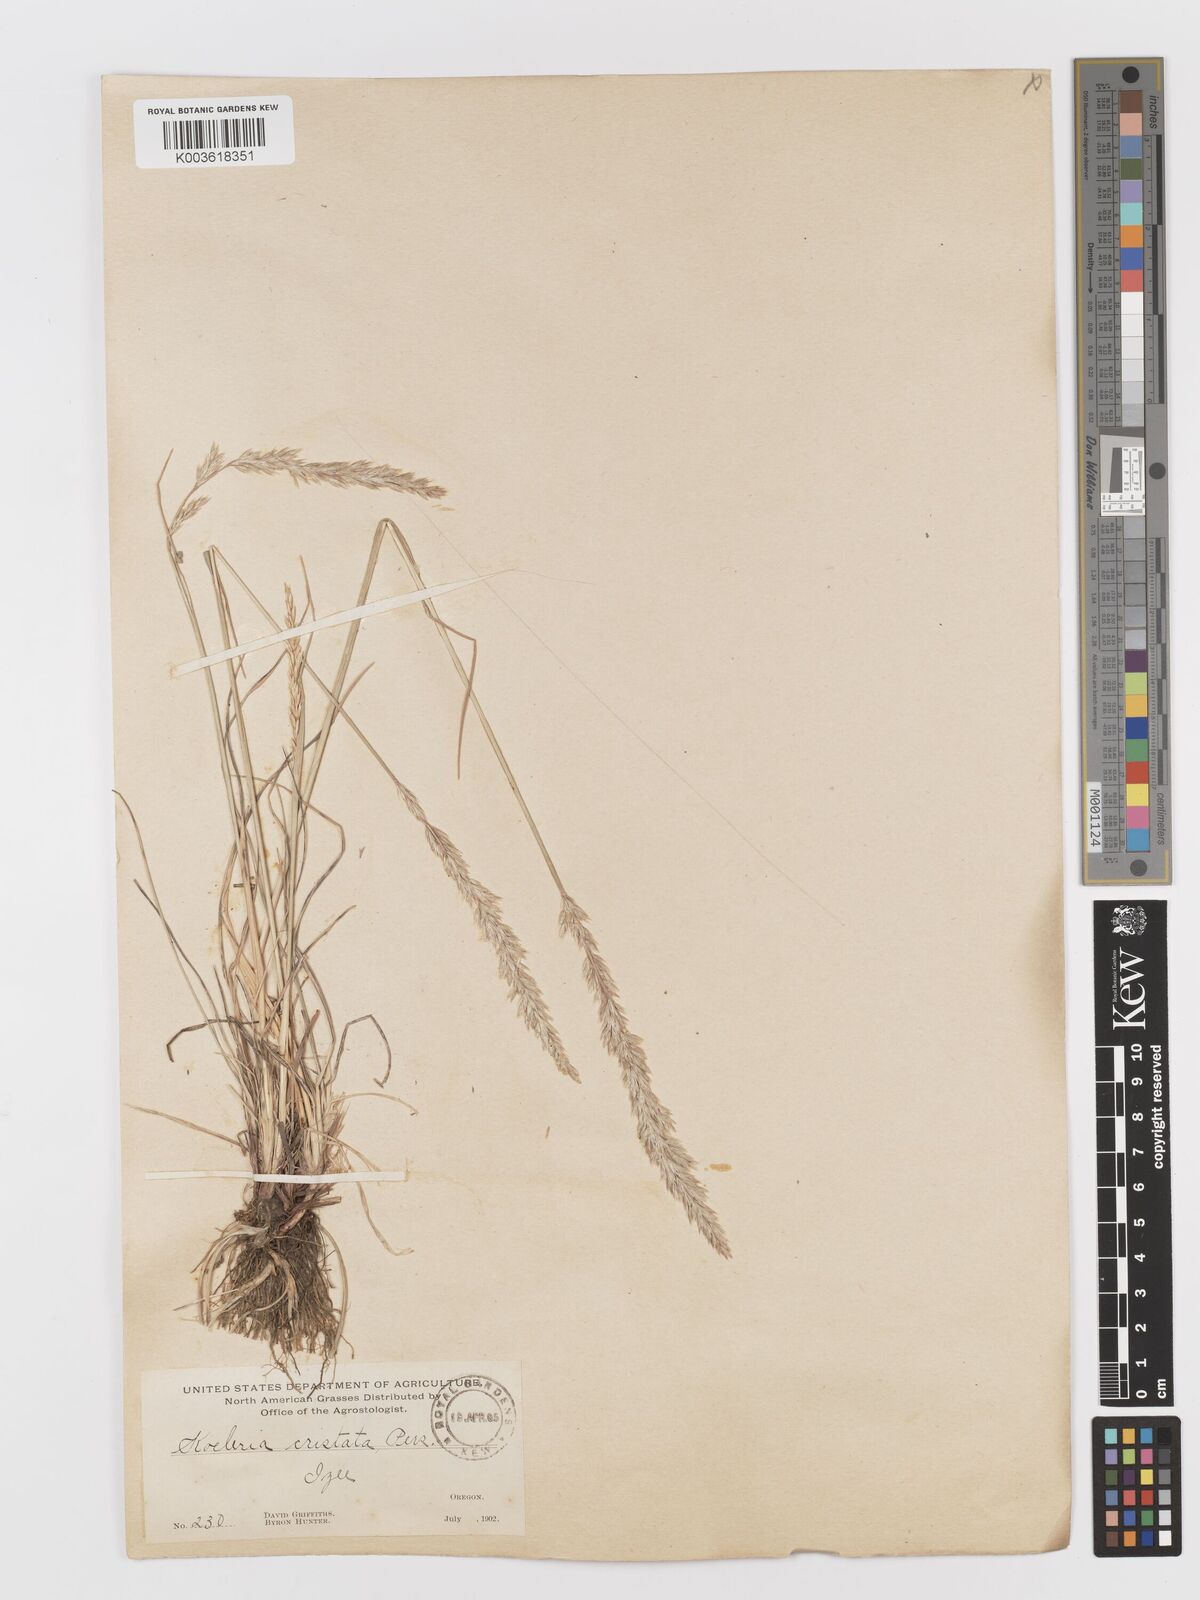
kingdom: Plantae
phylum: Tracheophyta
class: Liliopsida
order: Poales
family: Poaceae
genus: Koeleria
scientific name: Koeleria
